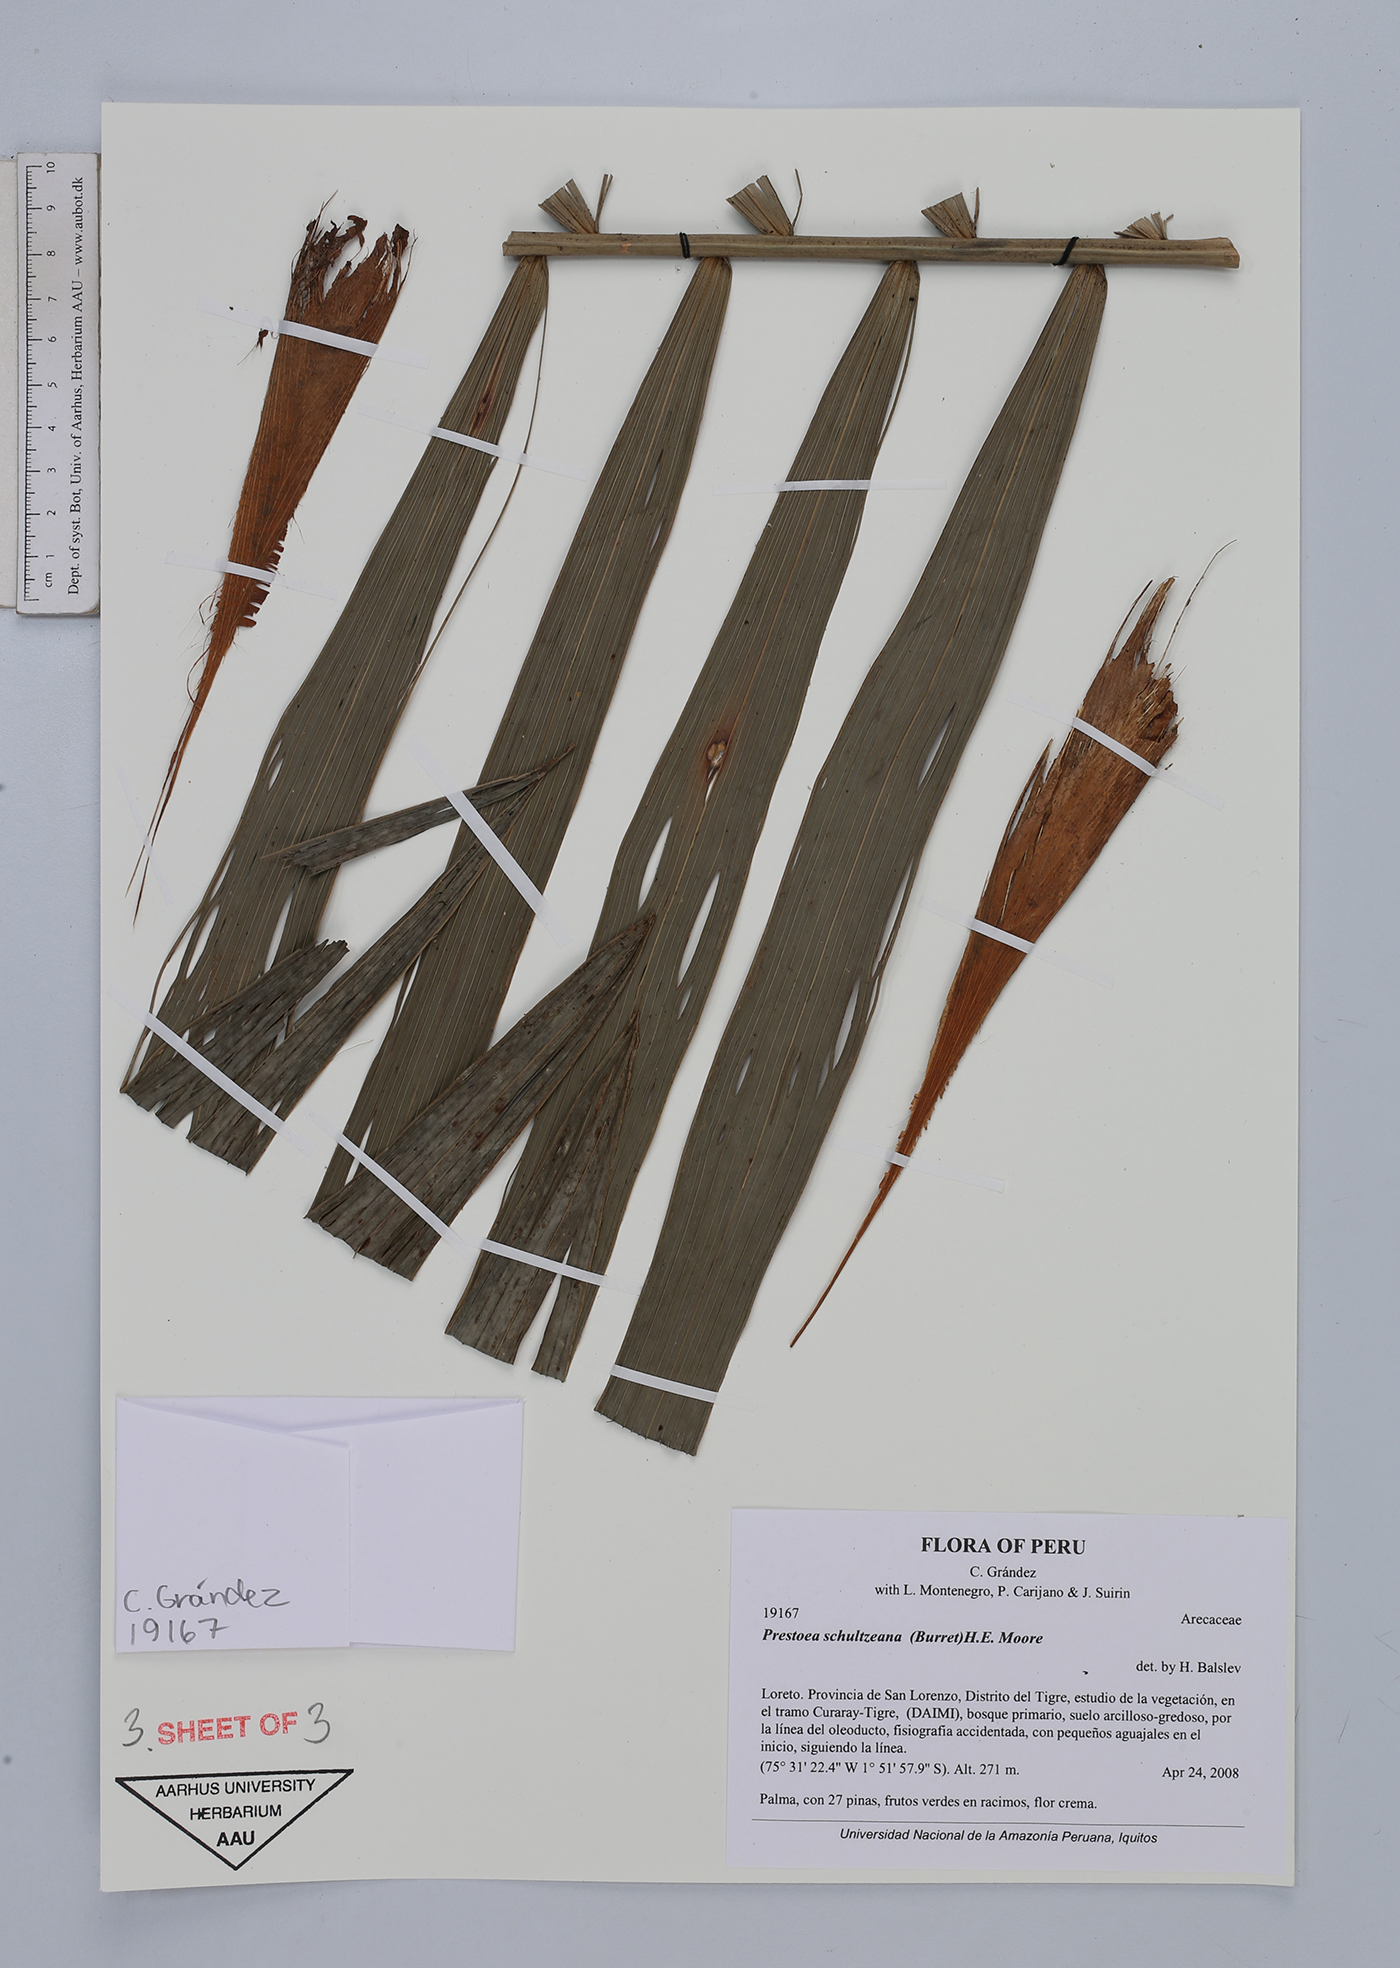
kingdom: Plantae
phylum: Tracheophyta
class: Liliopsida
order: Arecales
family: Arecaceae
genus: Prestoea
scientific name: Prestoea schultzeana
